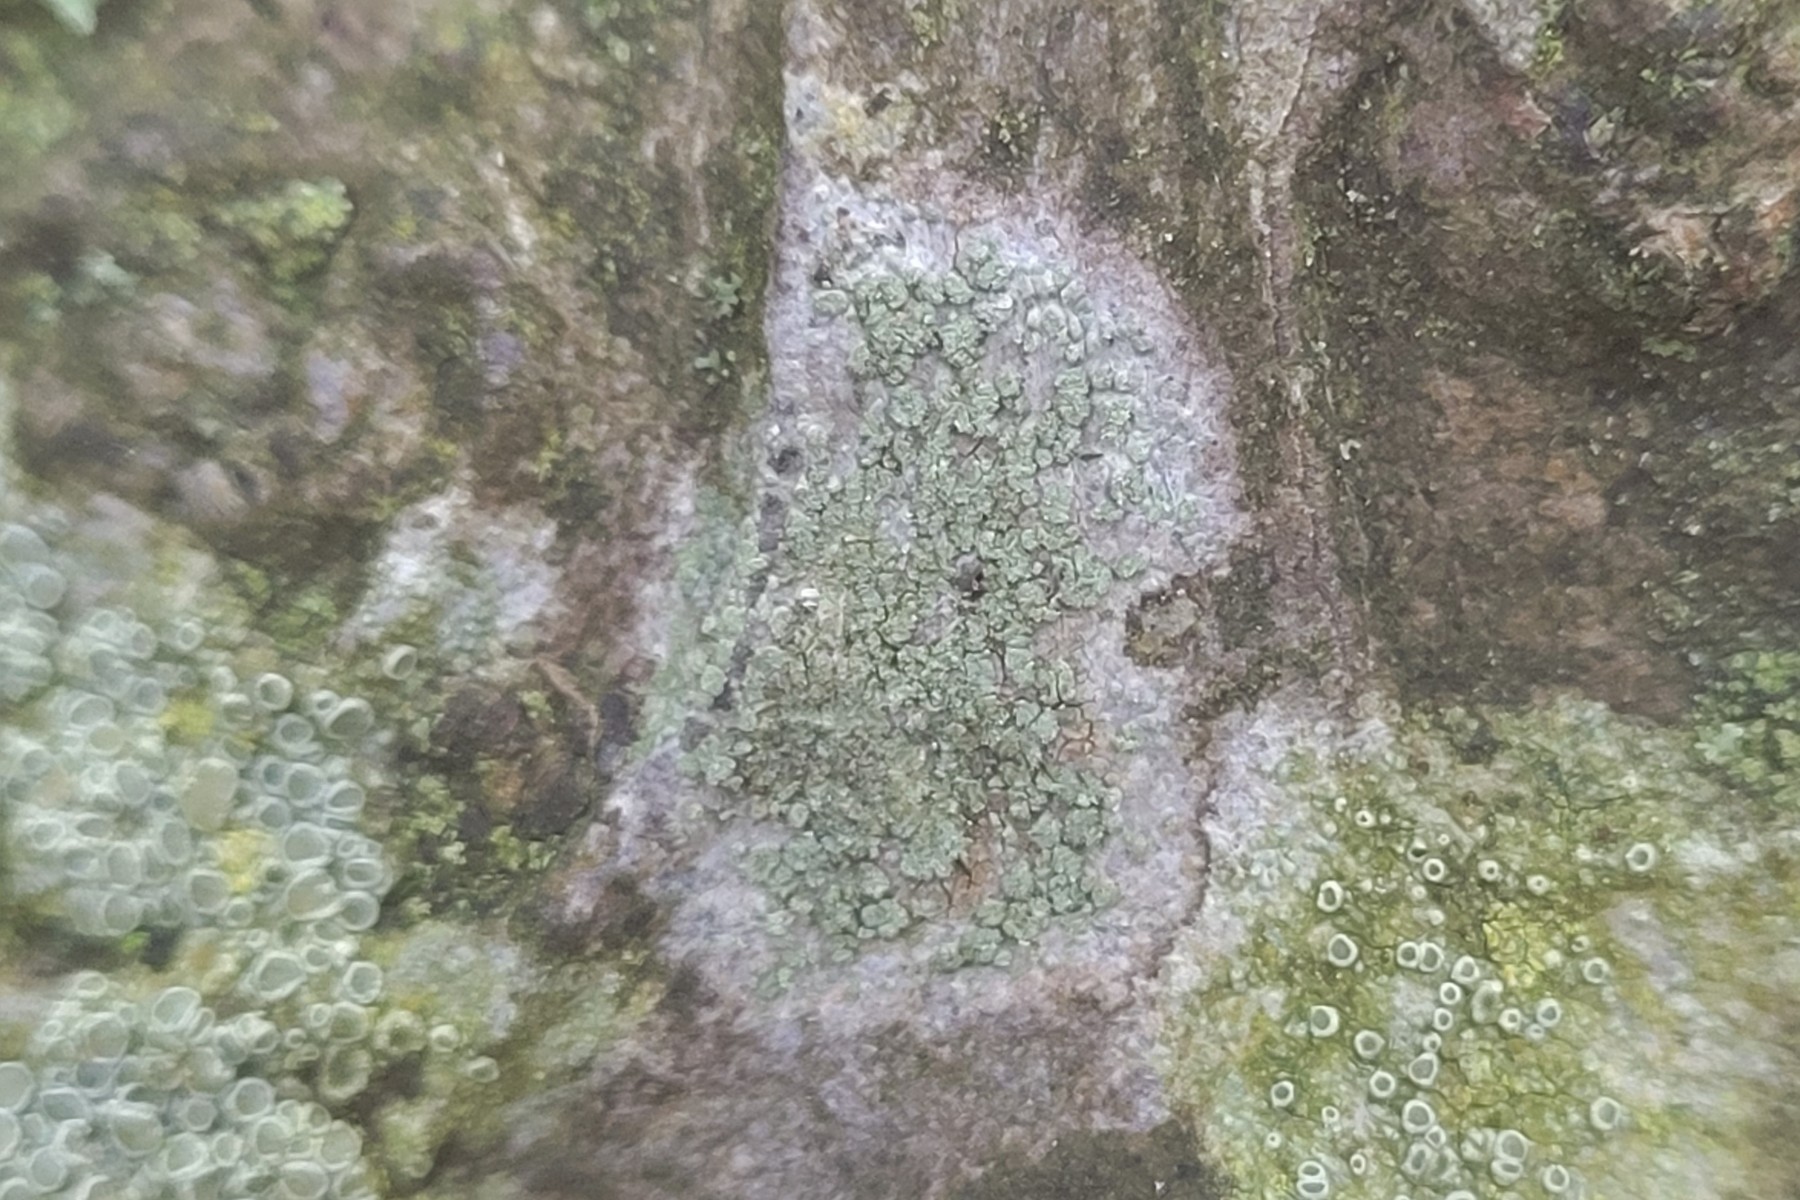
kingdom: Fungi
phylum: Ascomycota
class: Lecanoromycetes
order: Caliciales
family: Caliciaceae
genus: Buellia
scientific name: Buellia griseovirens
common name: grågrøn sortskivelav
